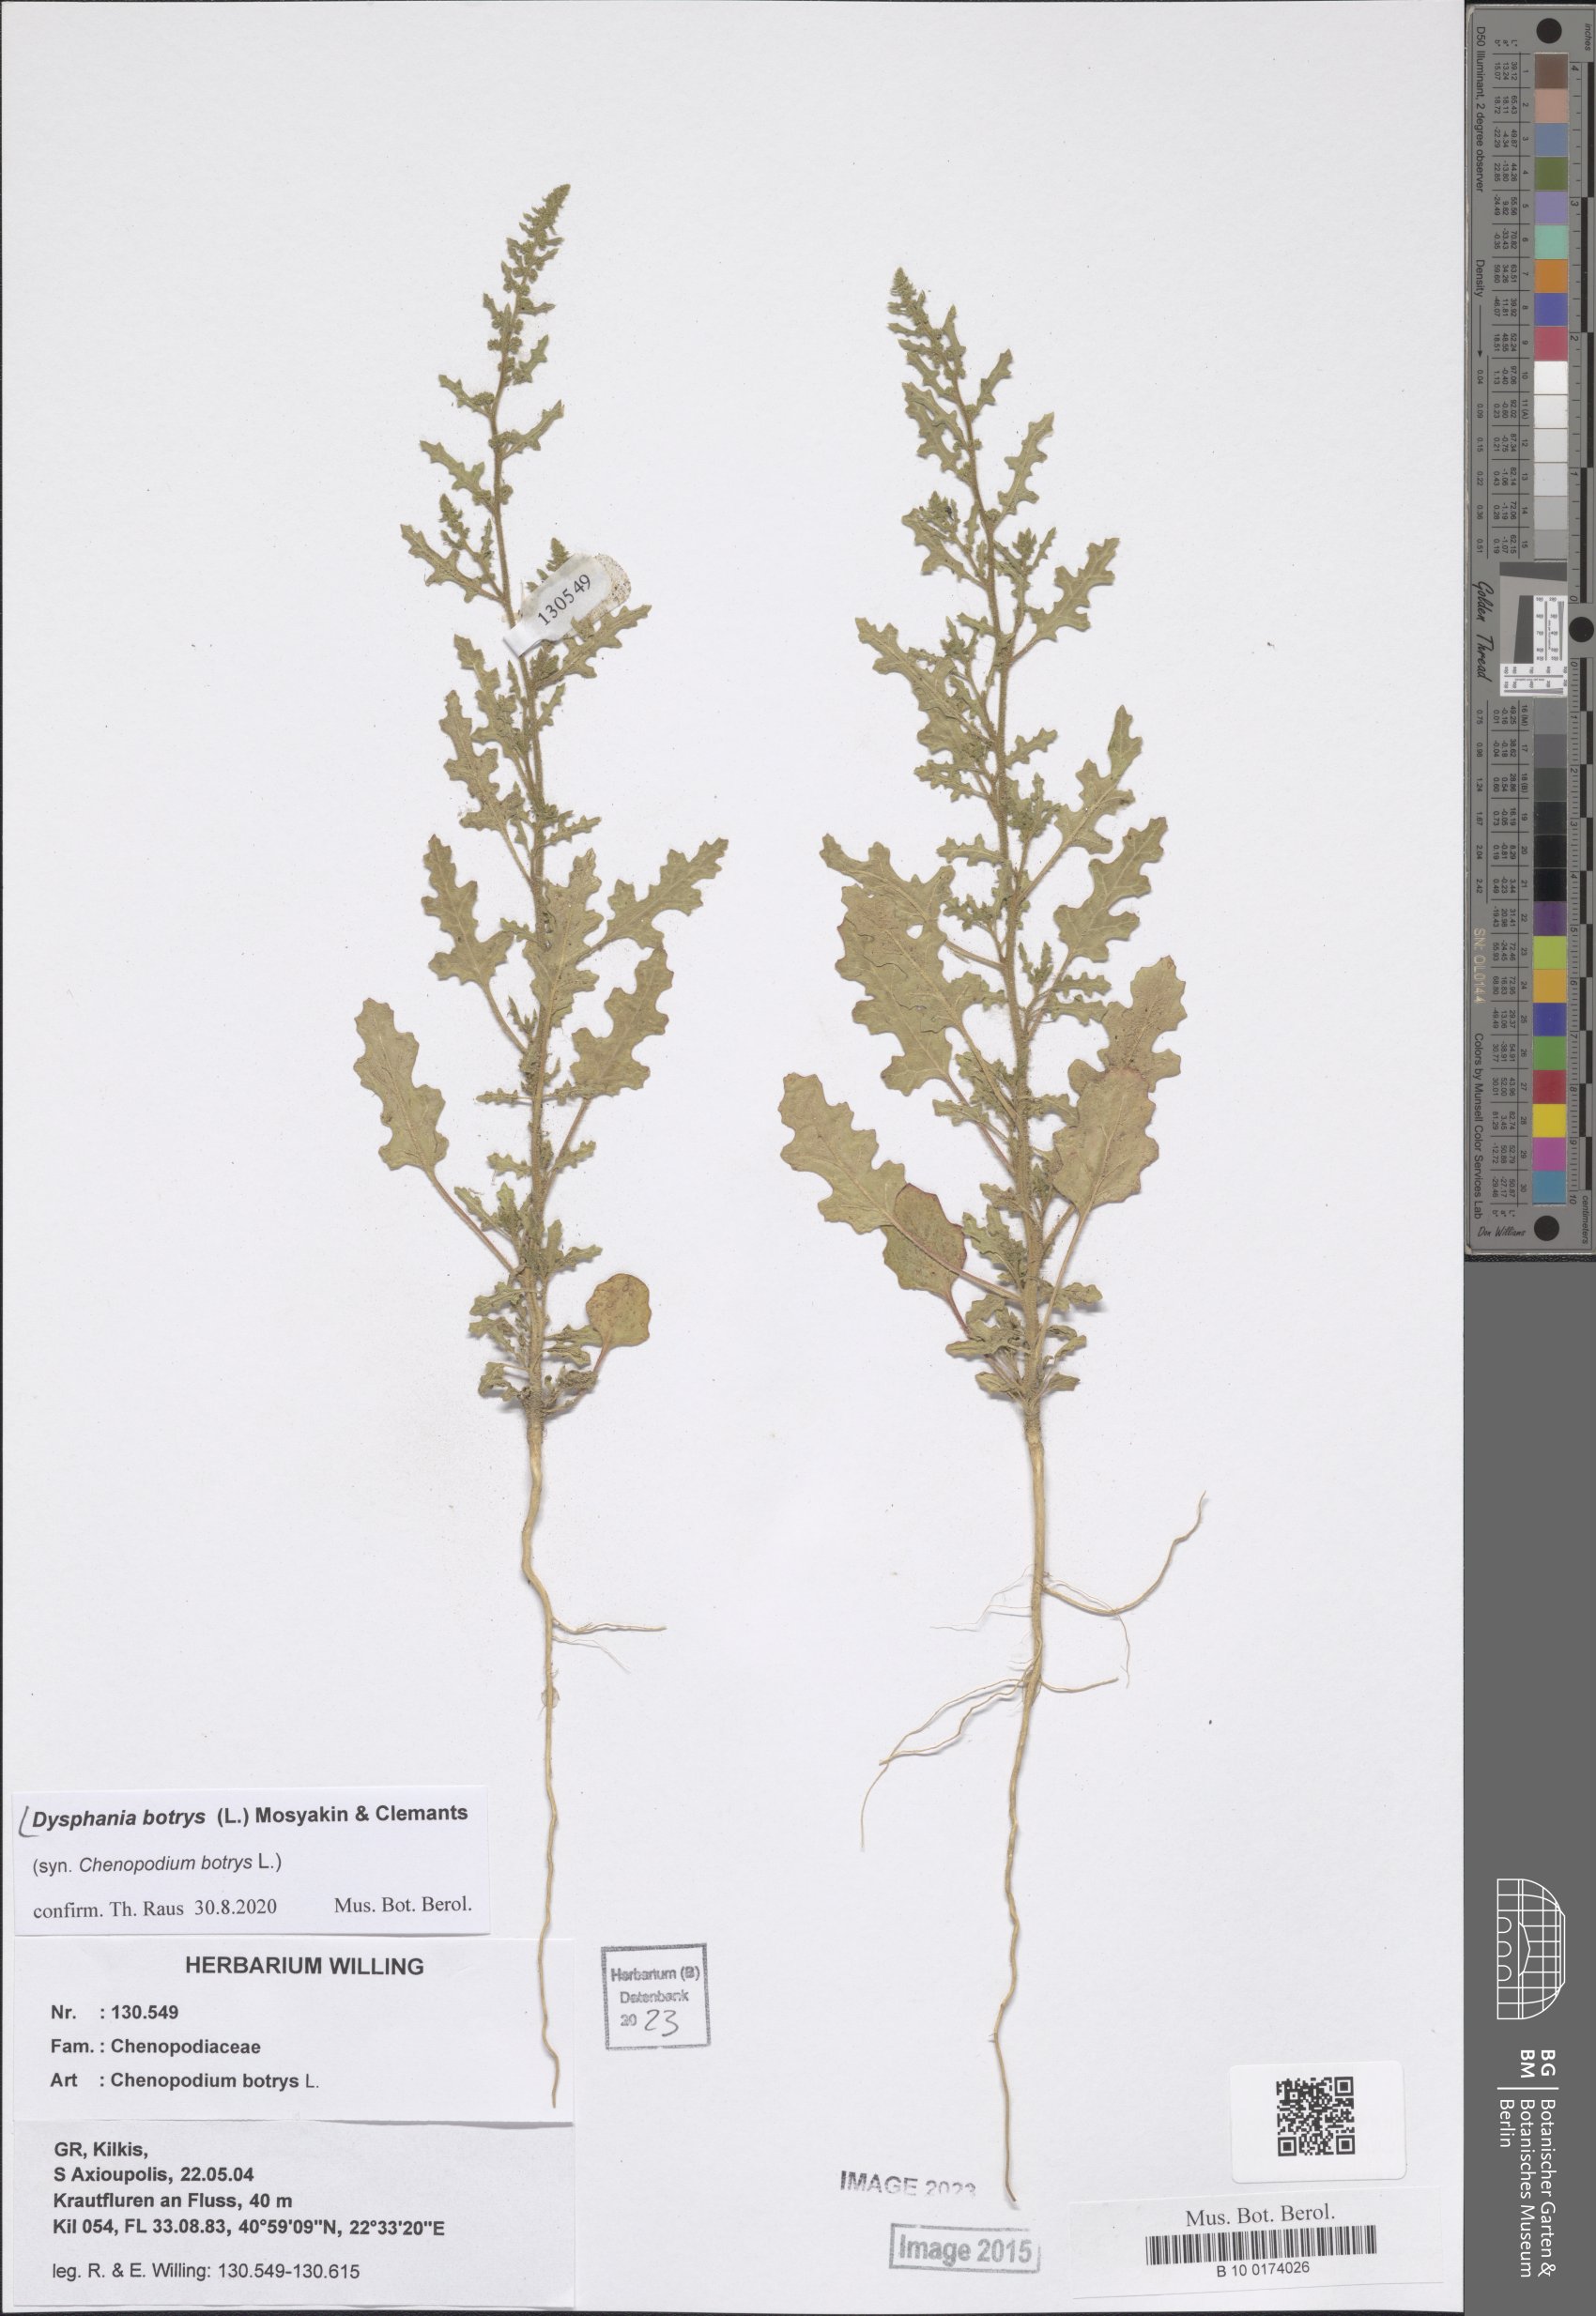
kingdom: Plantae
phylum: Tracheophyta
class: Magnoliopsida
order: Caryophyllales
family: Amaranthaceae
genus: Dysphania
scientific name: Dysphania botrys
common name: Feather-geranium
